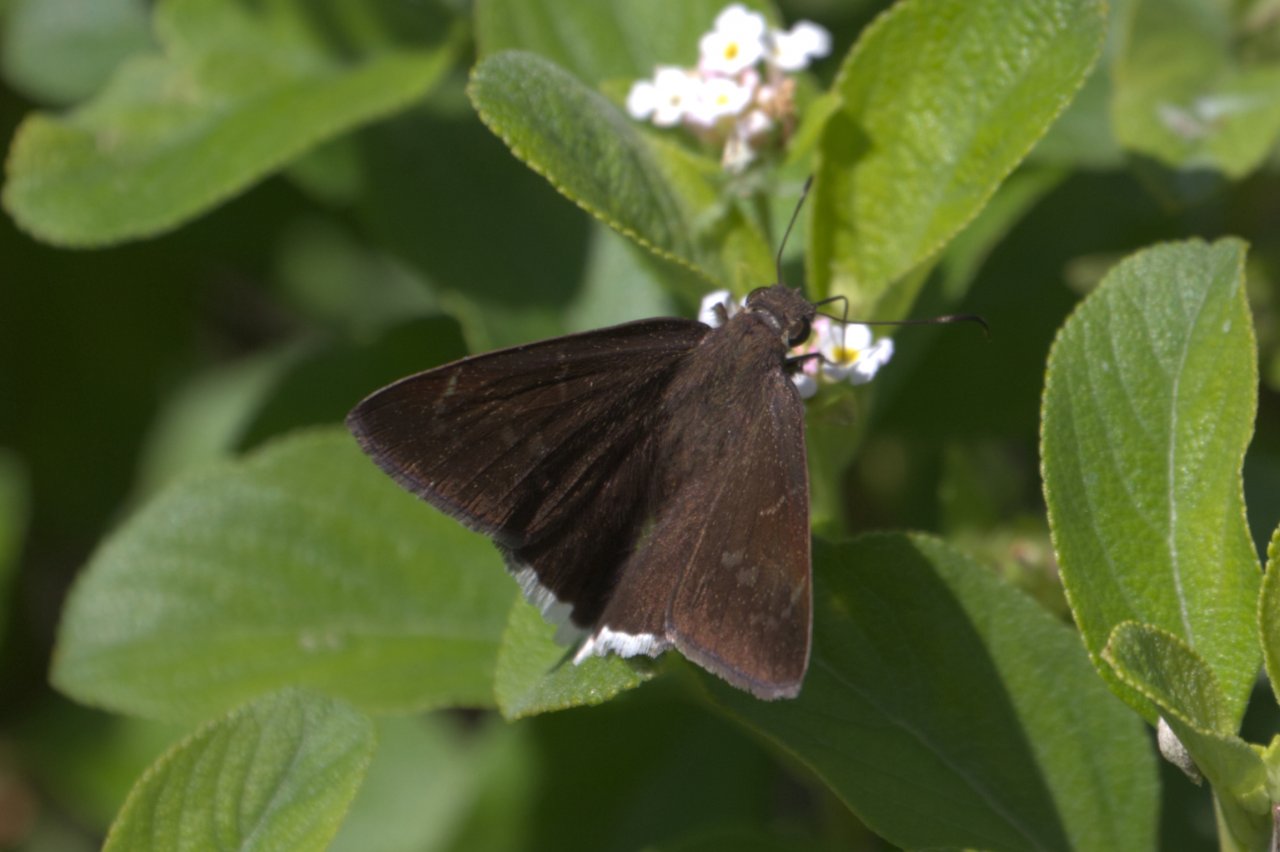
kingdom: Animalia
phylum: Arthropoda
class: Insecta
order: Lepidoptera
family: Hesperiidae
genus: Achalarus
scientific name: Achalarus toxeus
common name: Coyote Cloudywing
